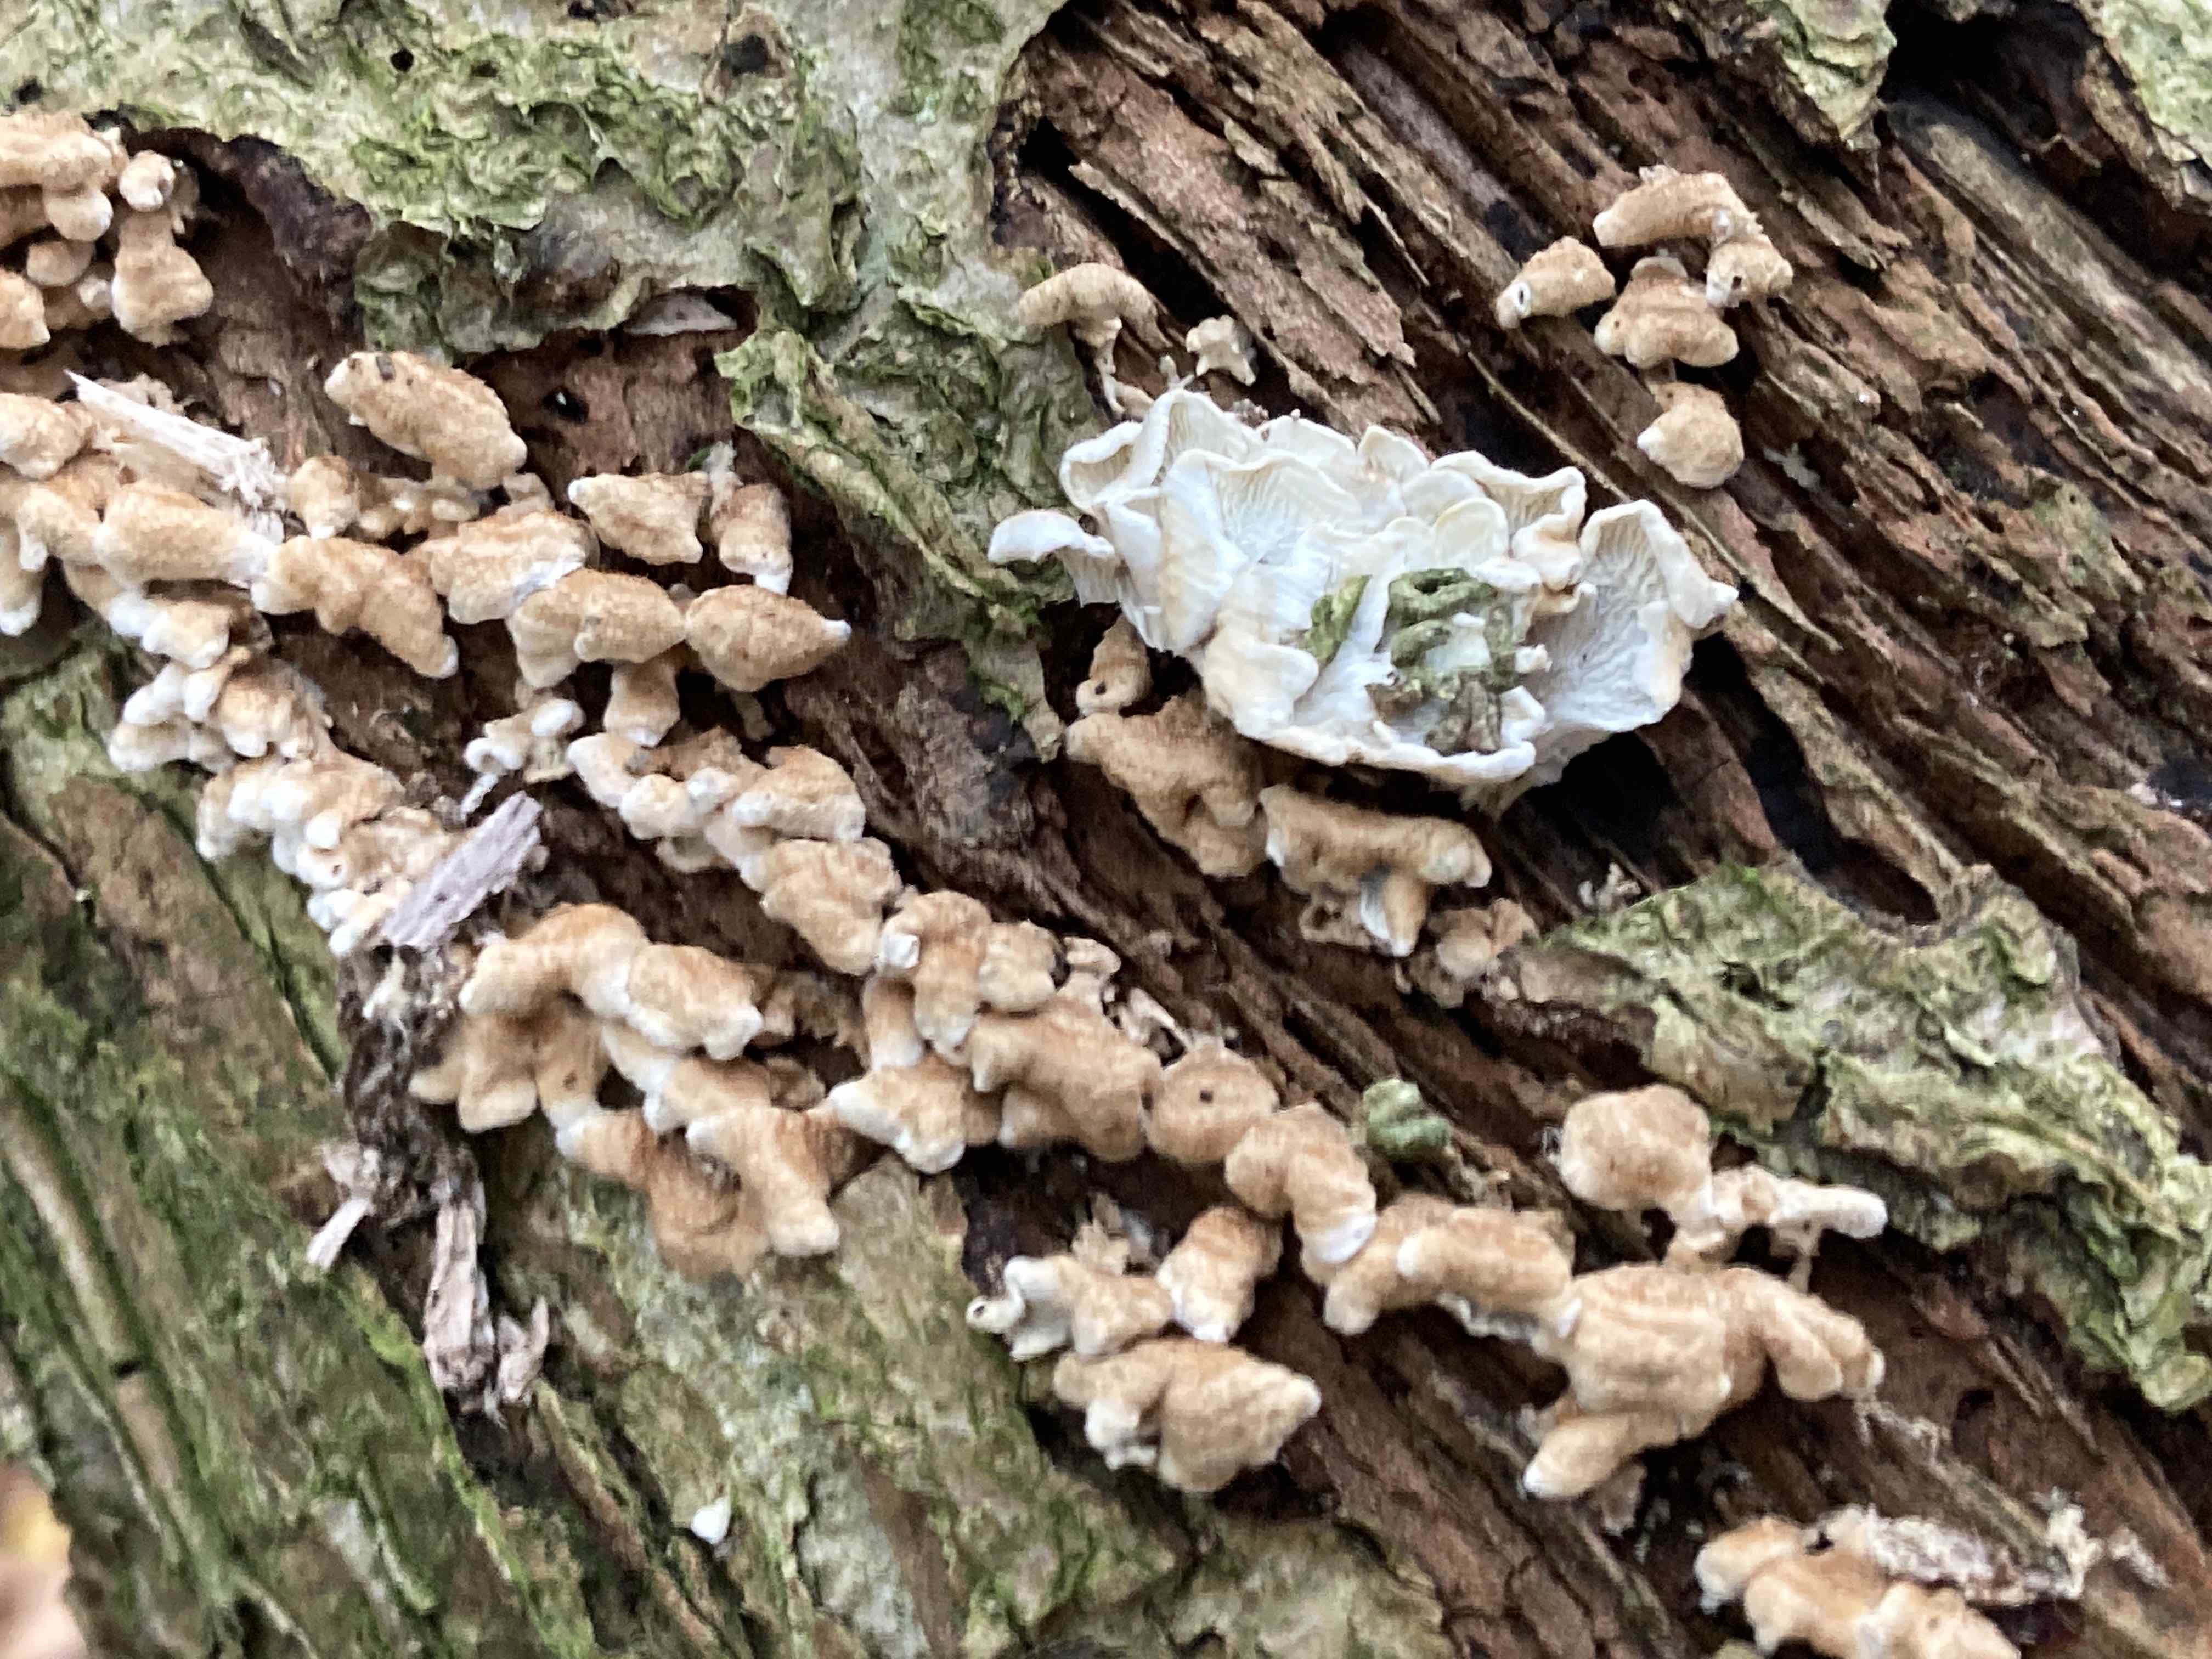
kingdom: Fungi
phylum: Basidiomycota
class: Agaricomycetes
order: Amylocorticiales
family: Amylocorticiaceae
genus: Plicaturopsis
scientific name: Plicaturopsis crispa
